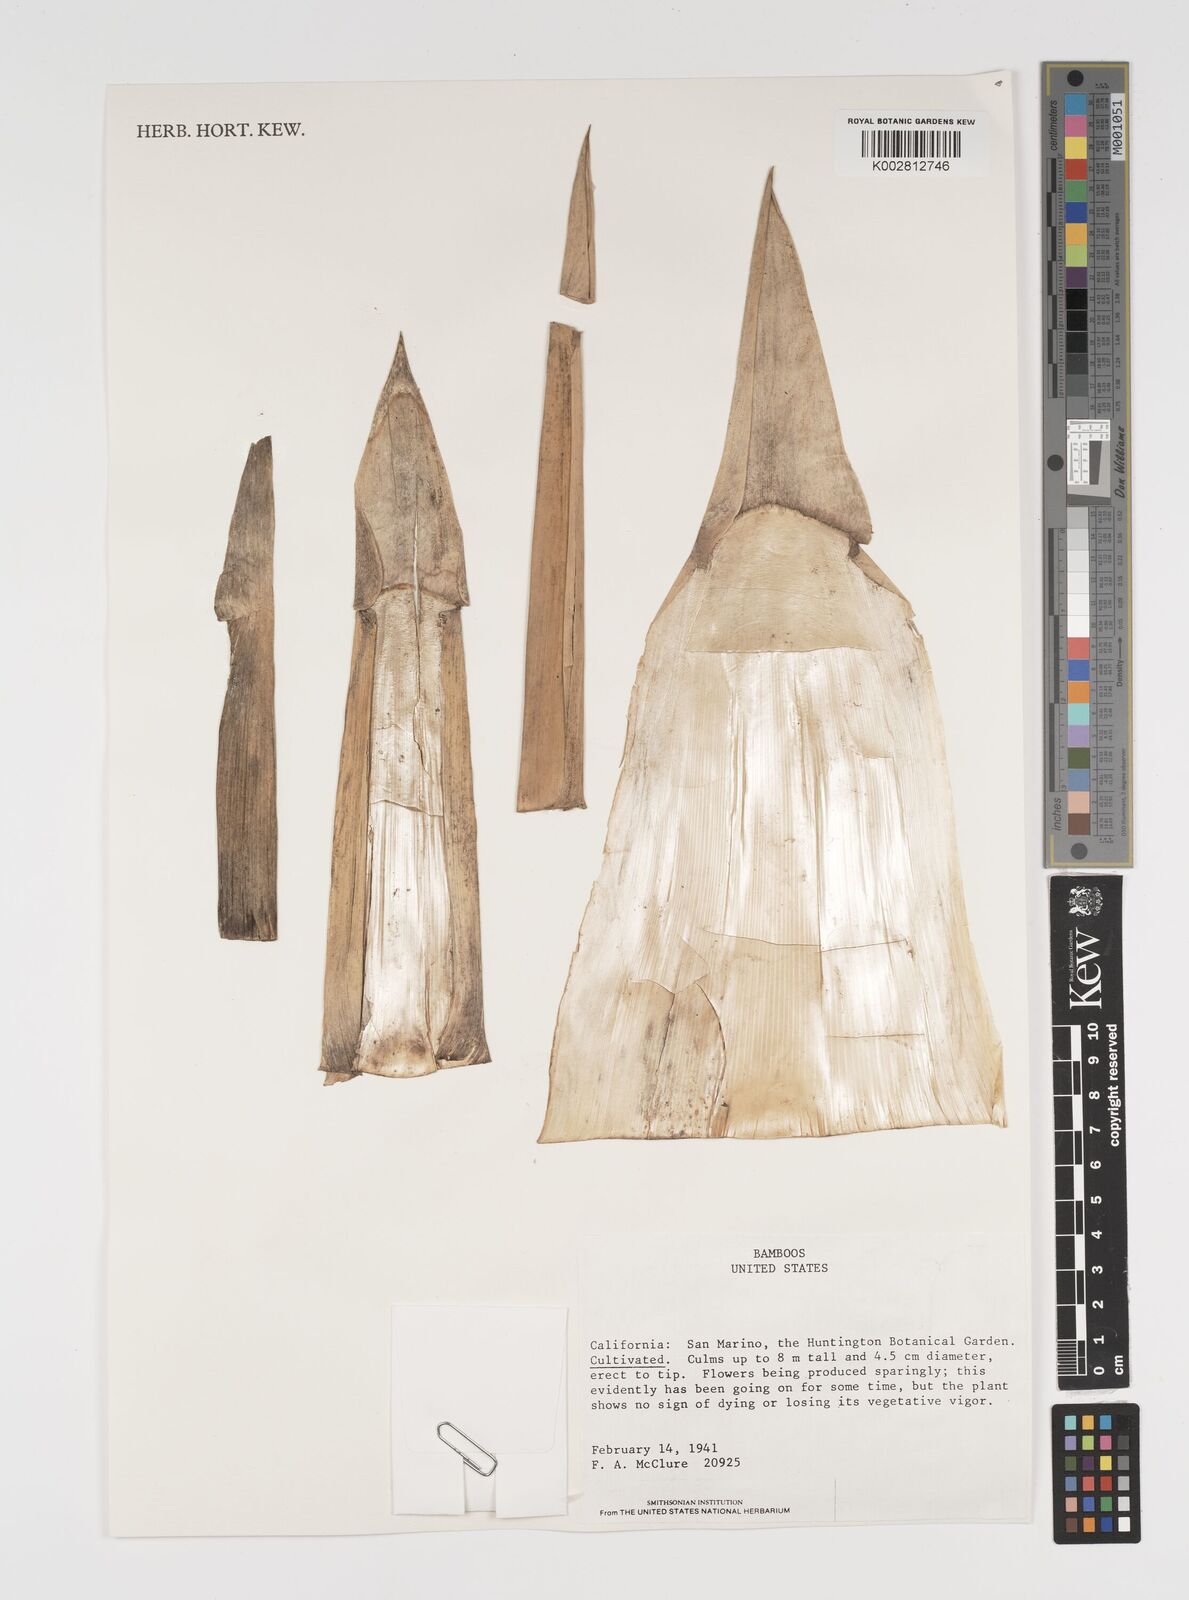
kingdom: Plantae
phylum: Tracheophyta
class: Liliopsida
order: Poales
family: Poaceae
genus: Arundinaria
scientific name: Arundinaria
